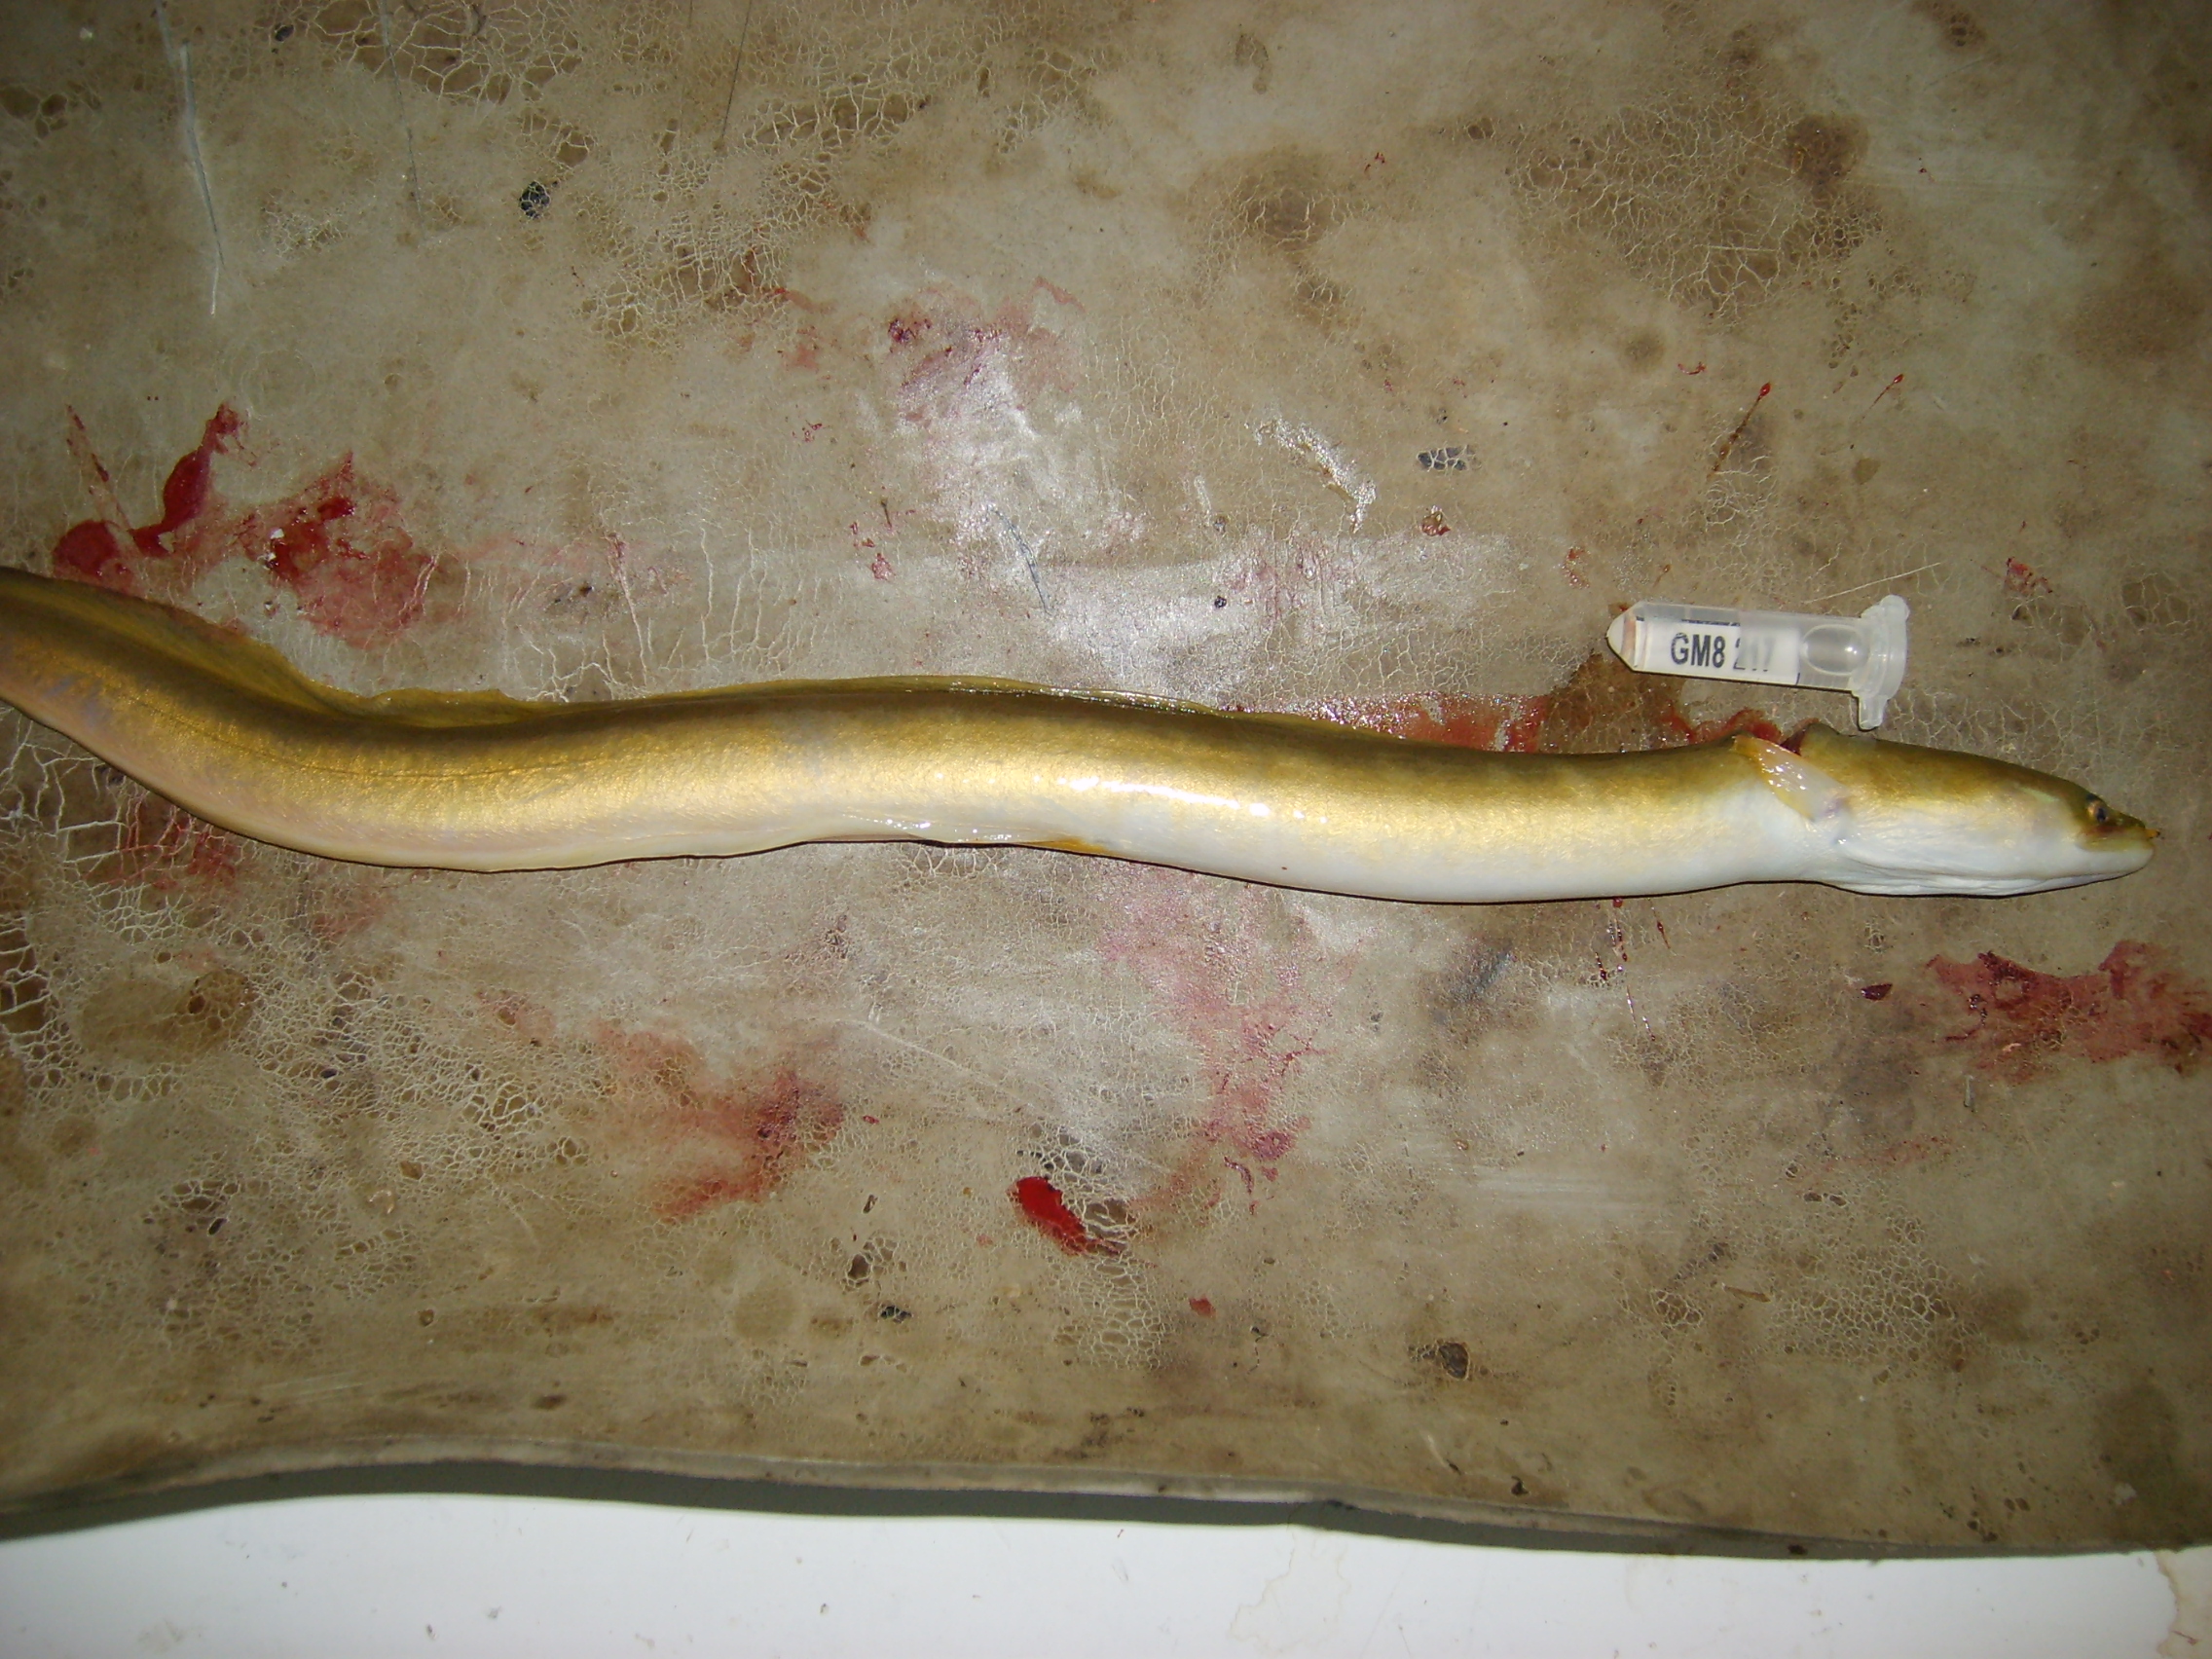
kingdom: Animalia
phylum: Chordata
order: Anguilliformes
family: Anguillidae
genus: Anguilla
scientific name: Anguilla mossambica
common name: African longfin eel
